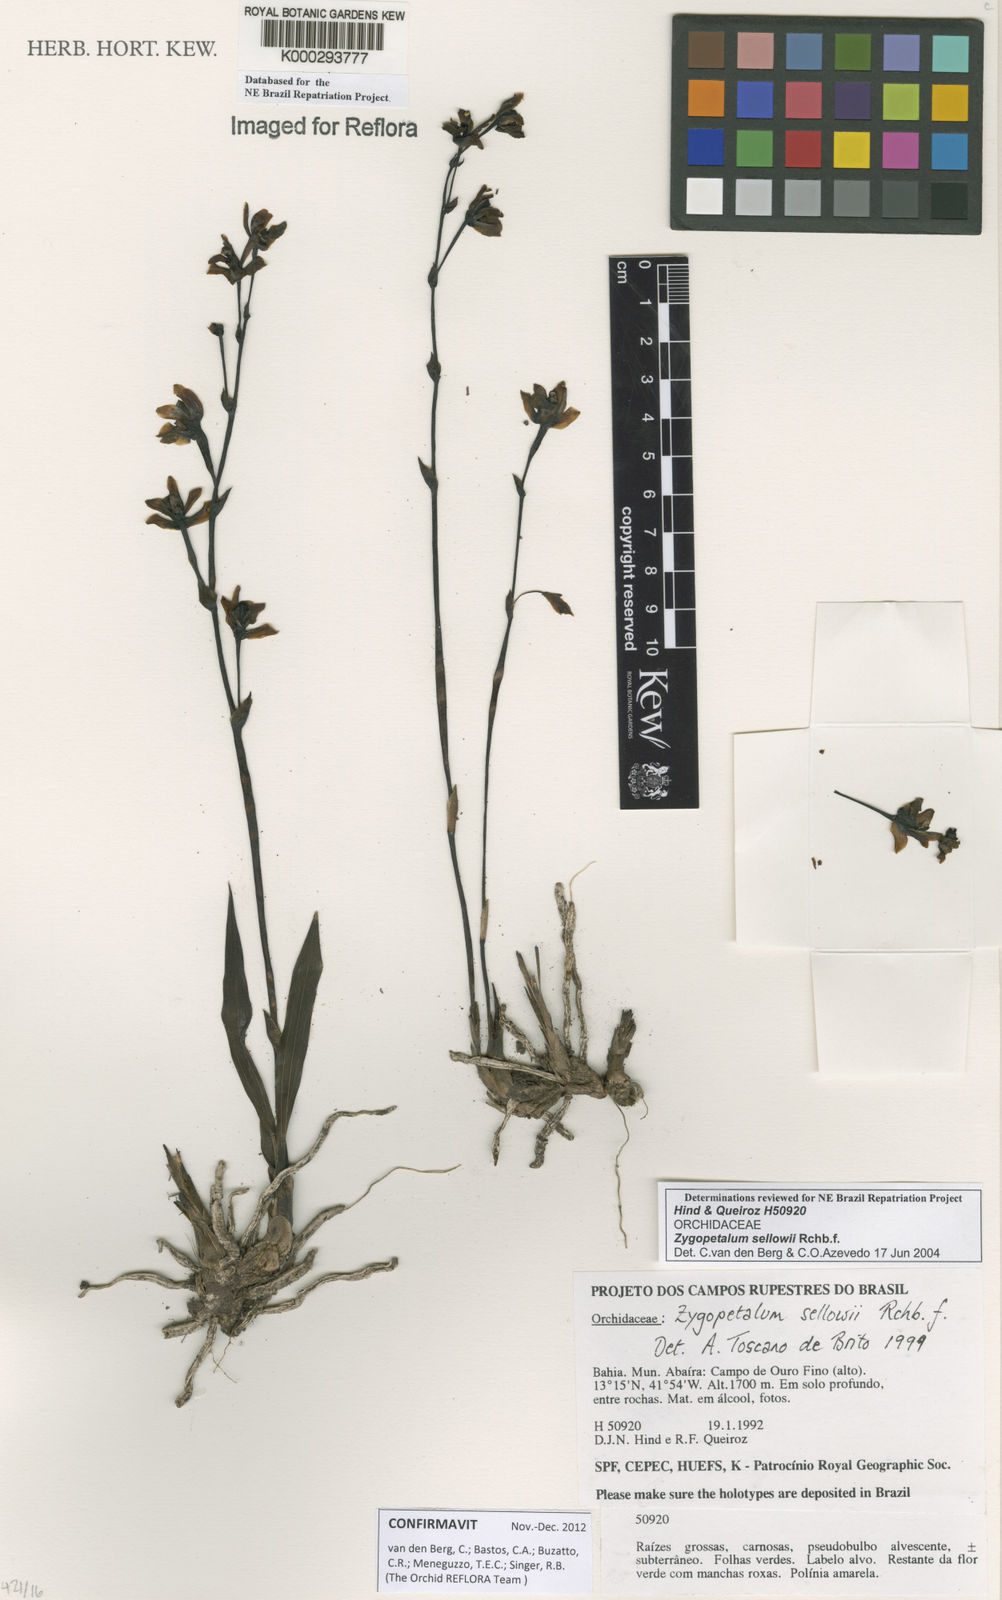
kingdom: Plantae
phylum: Tracheophyta
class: Liliopsida
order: Asparagales
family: Orchidaceae
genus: Zygopetalum
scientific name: Zygopetalum sellowii
